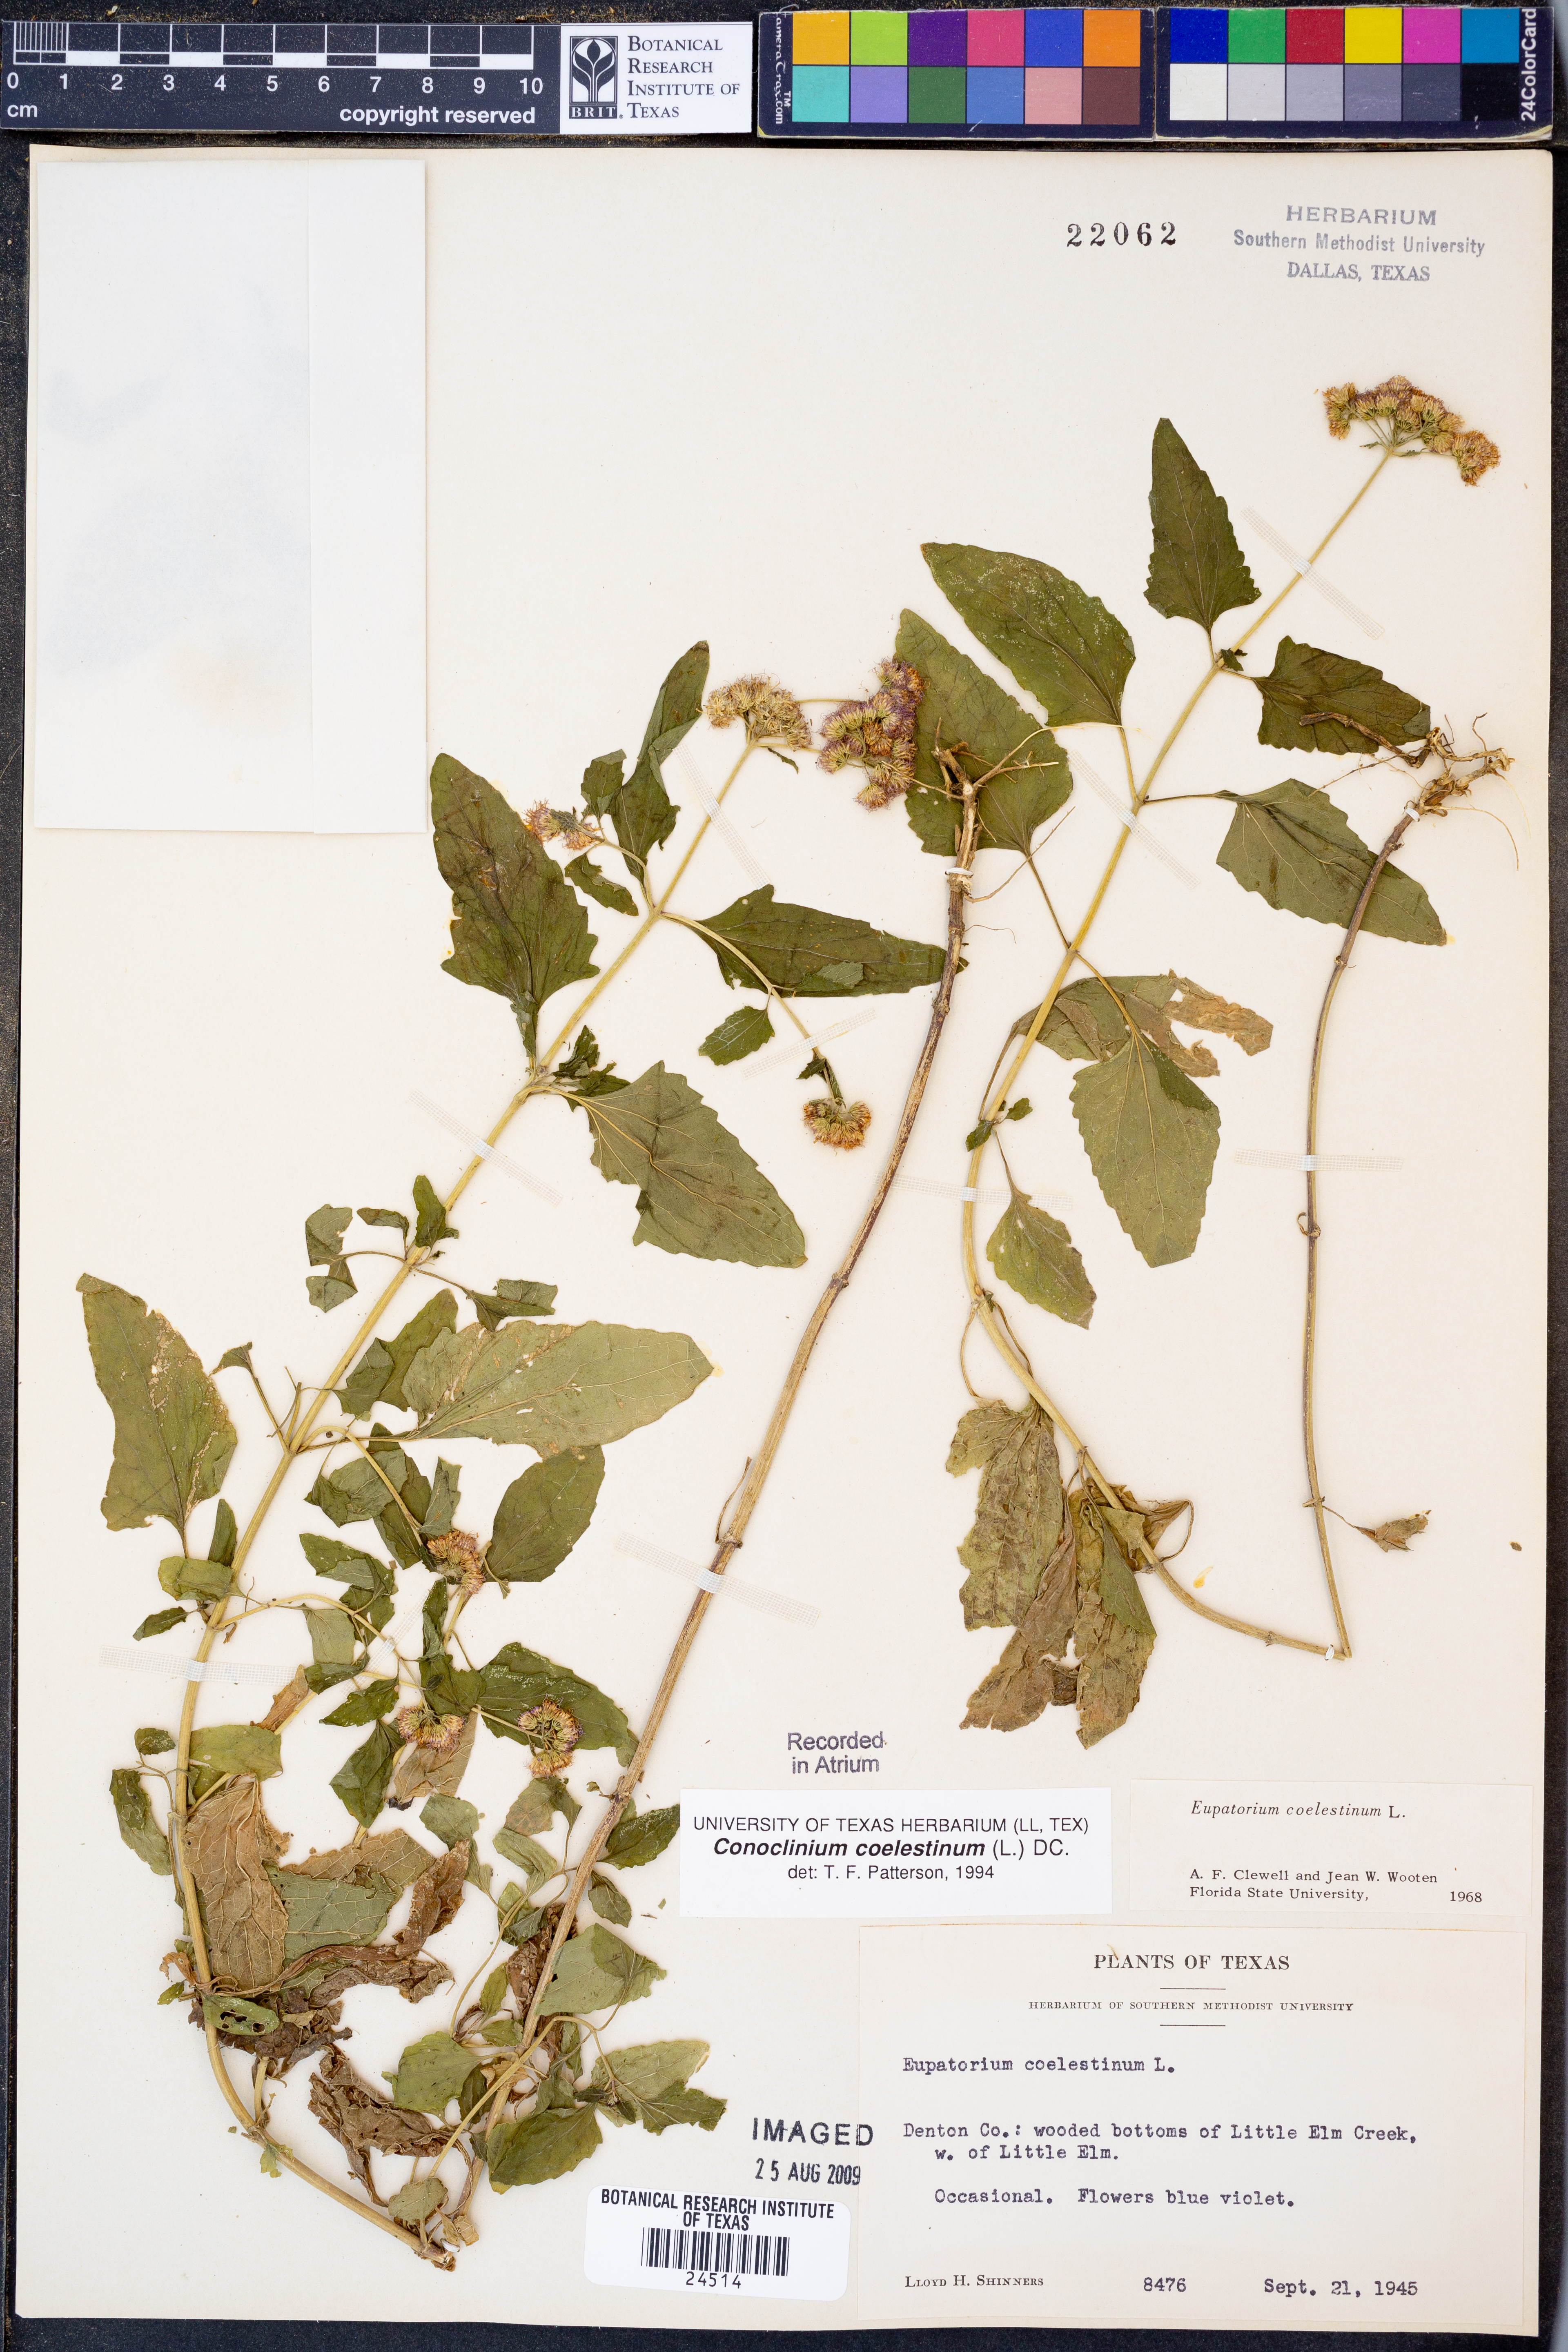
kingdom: Plantae
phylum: Tracheophyta
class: Magnoliopsida
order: Asterales
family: Asteraceae
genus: Conoclinium
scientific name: Conoclinium coelestinum
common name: Blue mistflower
